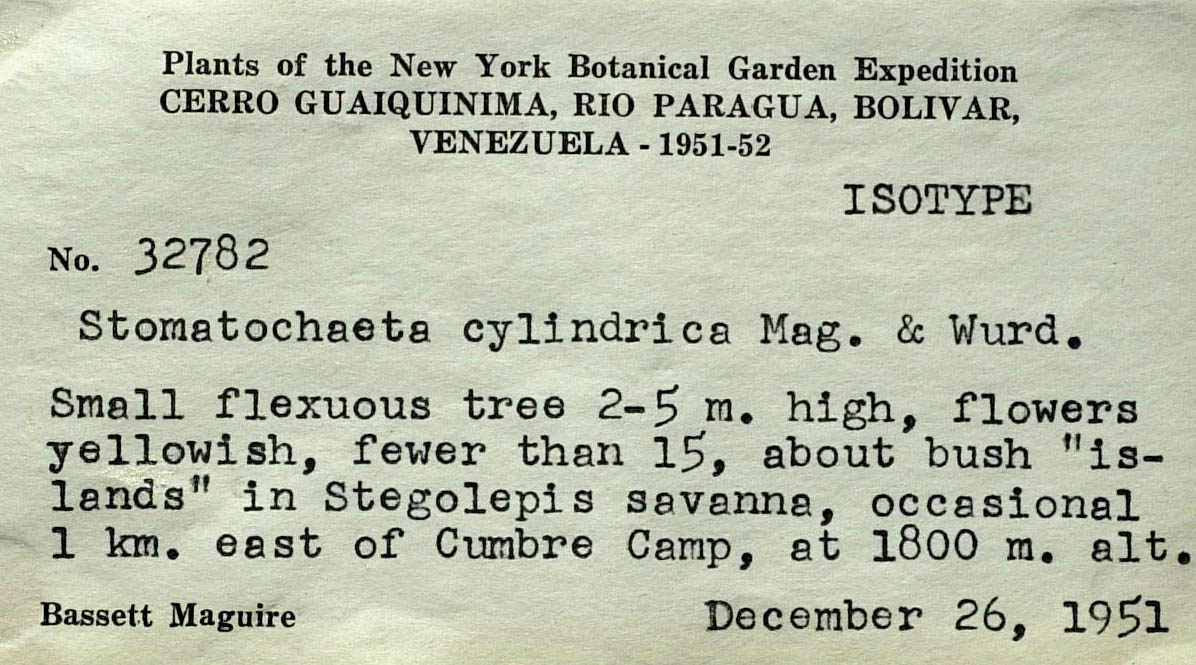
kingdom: Plantae
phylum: Tracheophyta
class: Magnoliopsida
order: Asterales
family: Asteraceae
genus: Stomatochaeta
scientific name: Stomatochaeta cylindrica
